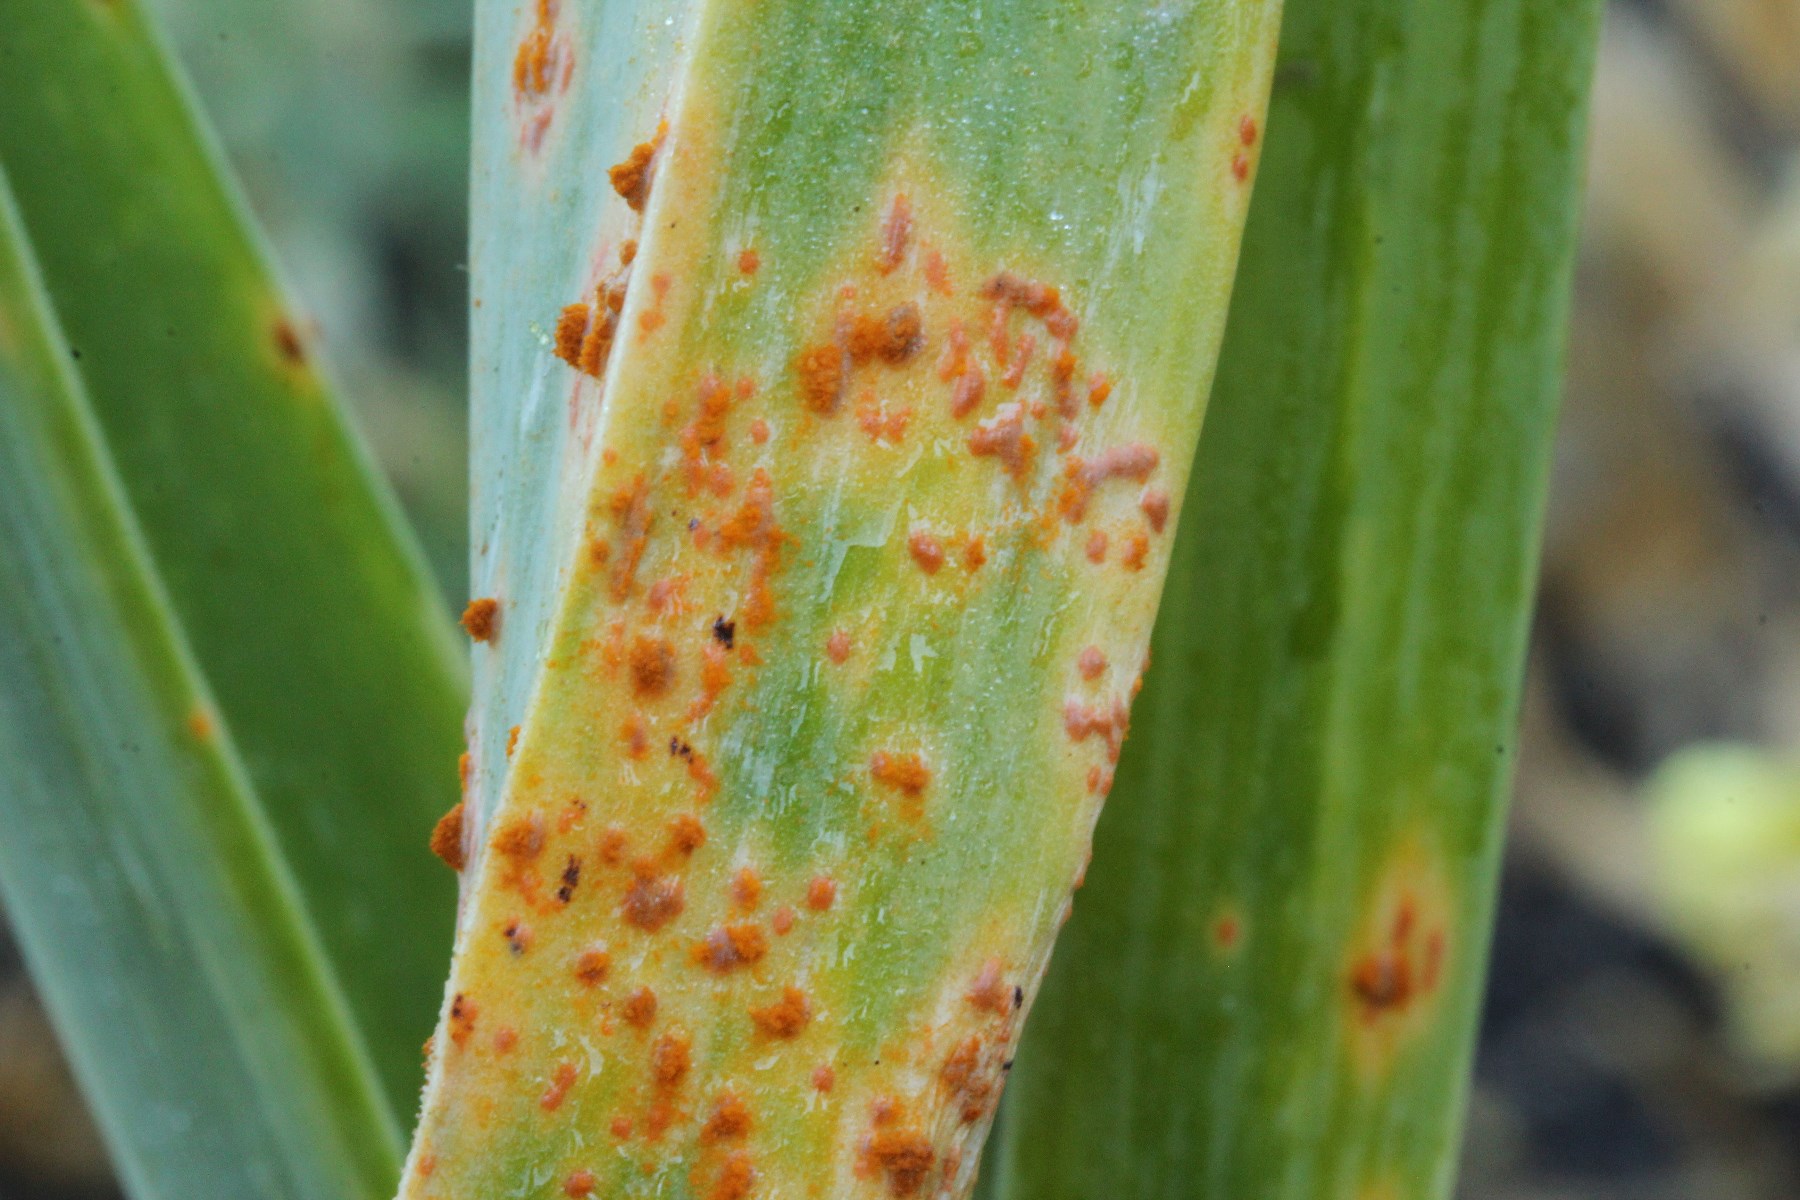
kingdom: Fungi
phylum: Basidiomycota
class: Pucciniomycetes
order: Pucciniales
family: Pucciniaceae
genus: Puccinia
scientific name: Puccinia porri
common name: Allium rust
